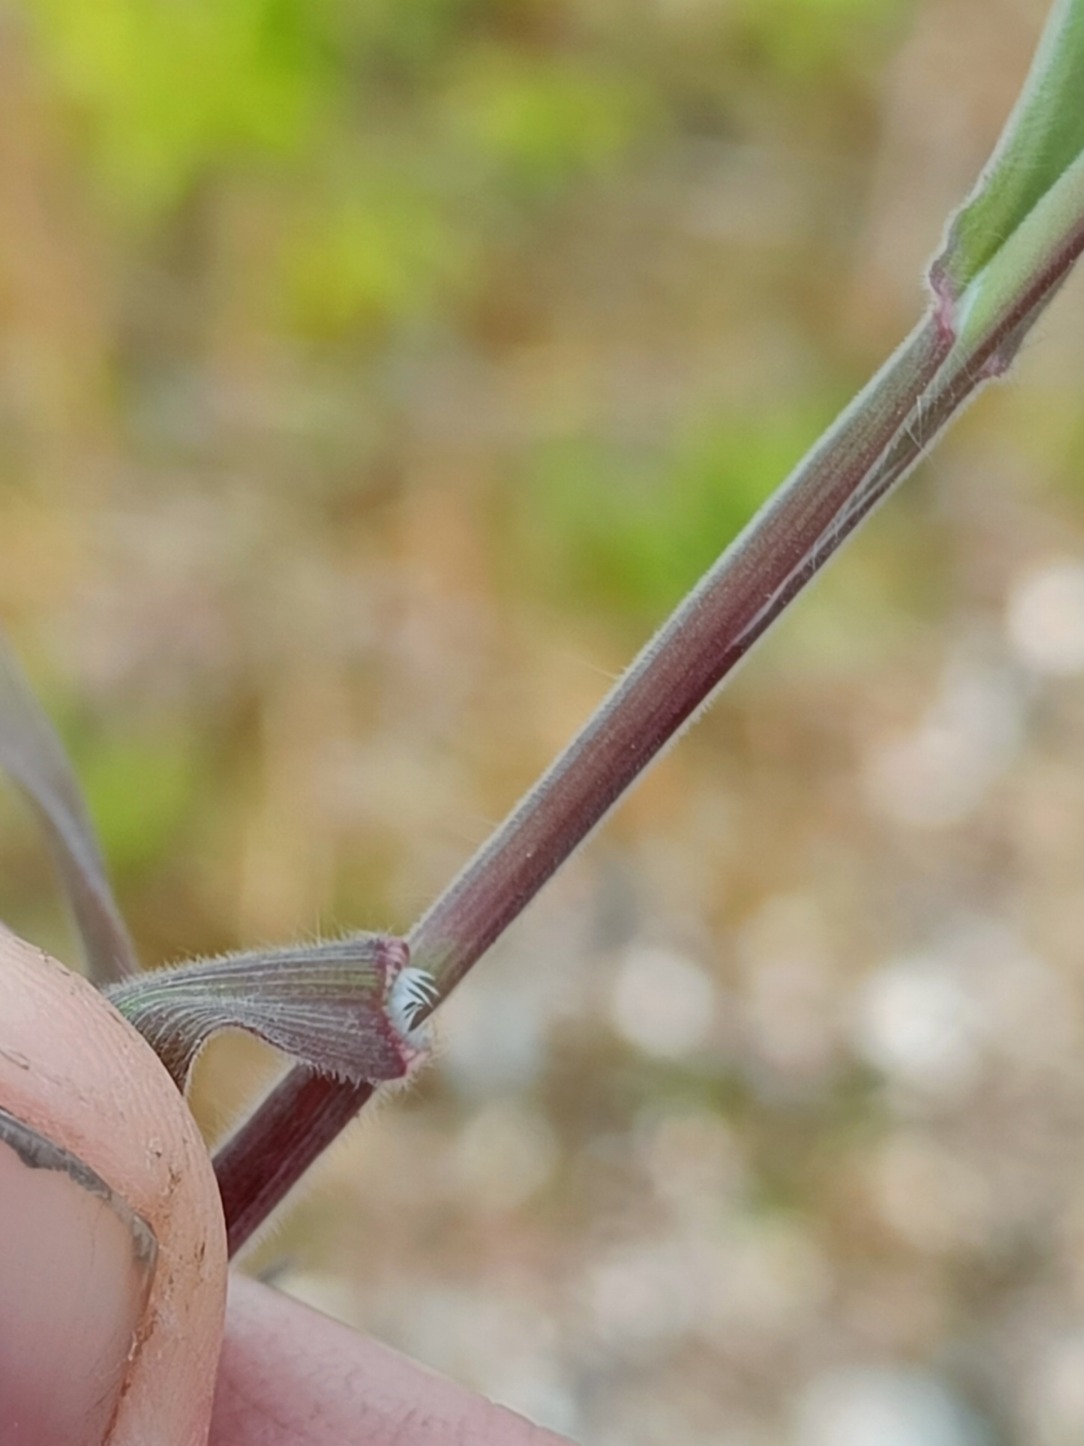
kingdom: Plantae
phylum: Tracheophyta
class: Liliopsida
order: Poales
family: Poaceae
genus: Bromus
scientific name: Bromus tectorum
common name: Tag-hejre
